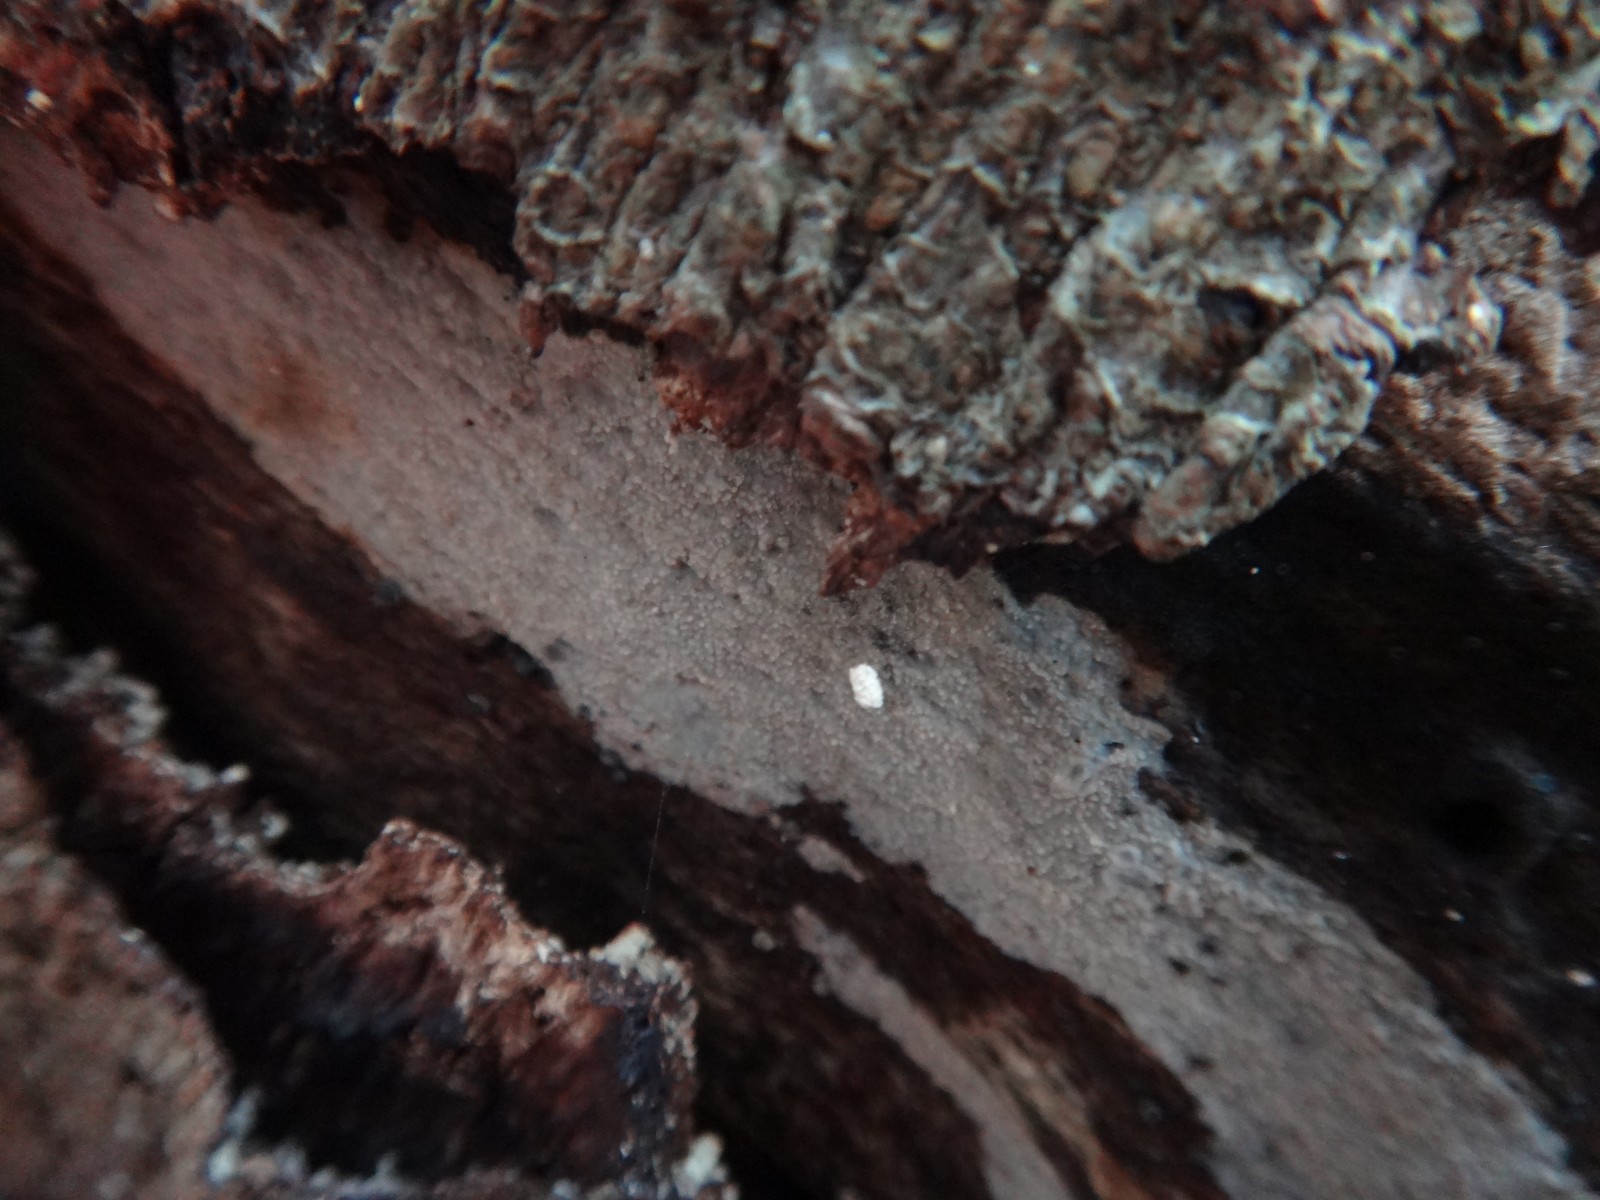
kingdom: Fungi
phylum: Basidiomycota
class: Agaricomycetes
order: Polyporales
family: Meruliaceae
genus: Cytidiella
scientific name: Cytidiella albida
